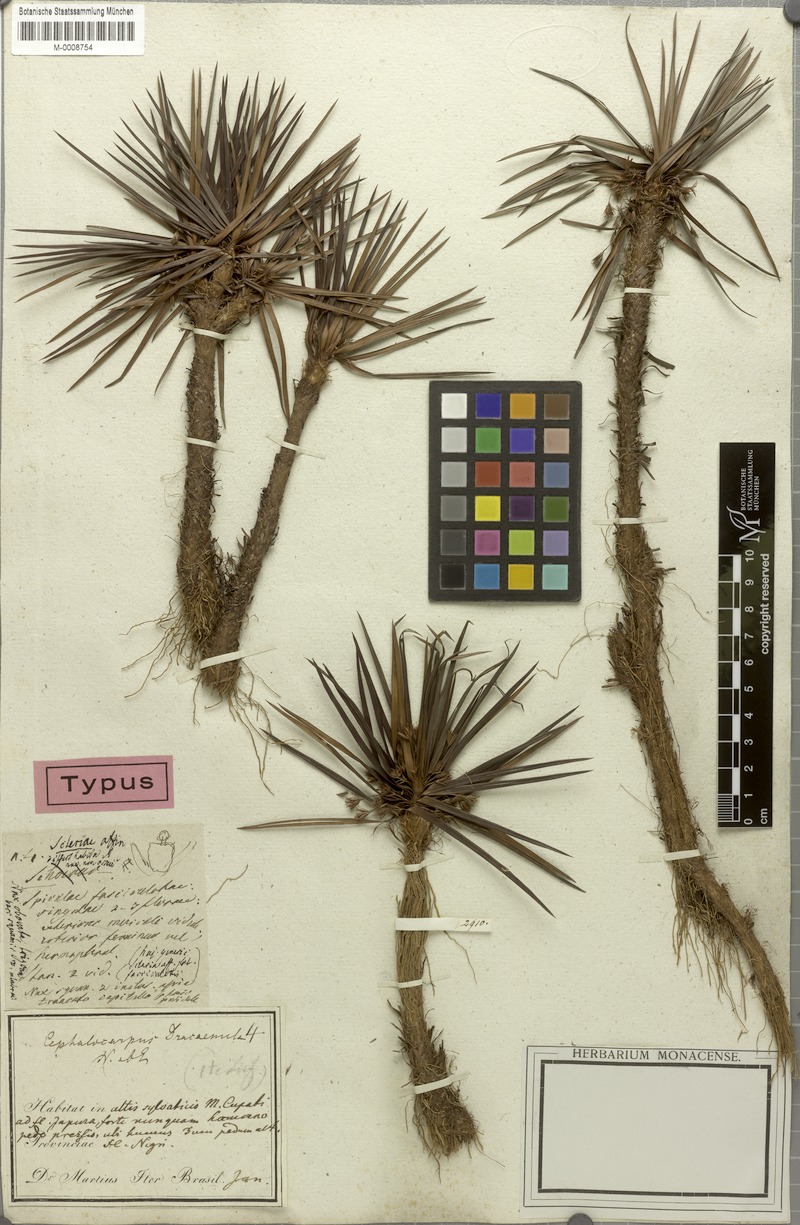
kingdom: Plantae
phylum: Tracheophyta
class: Liliopsida
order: Poales
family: Cyperaceae
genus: Cephalocarpus
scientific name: Cephalocarpus dracaenula
